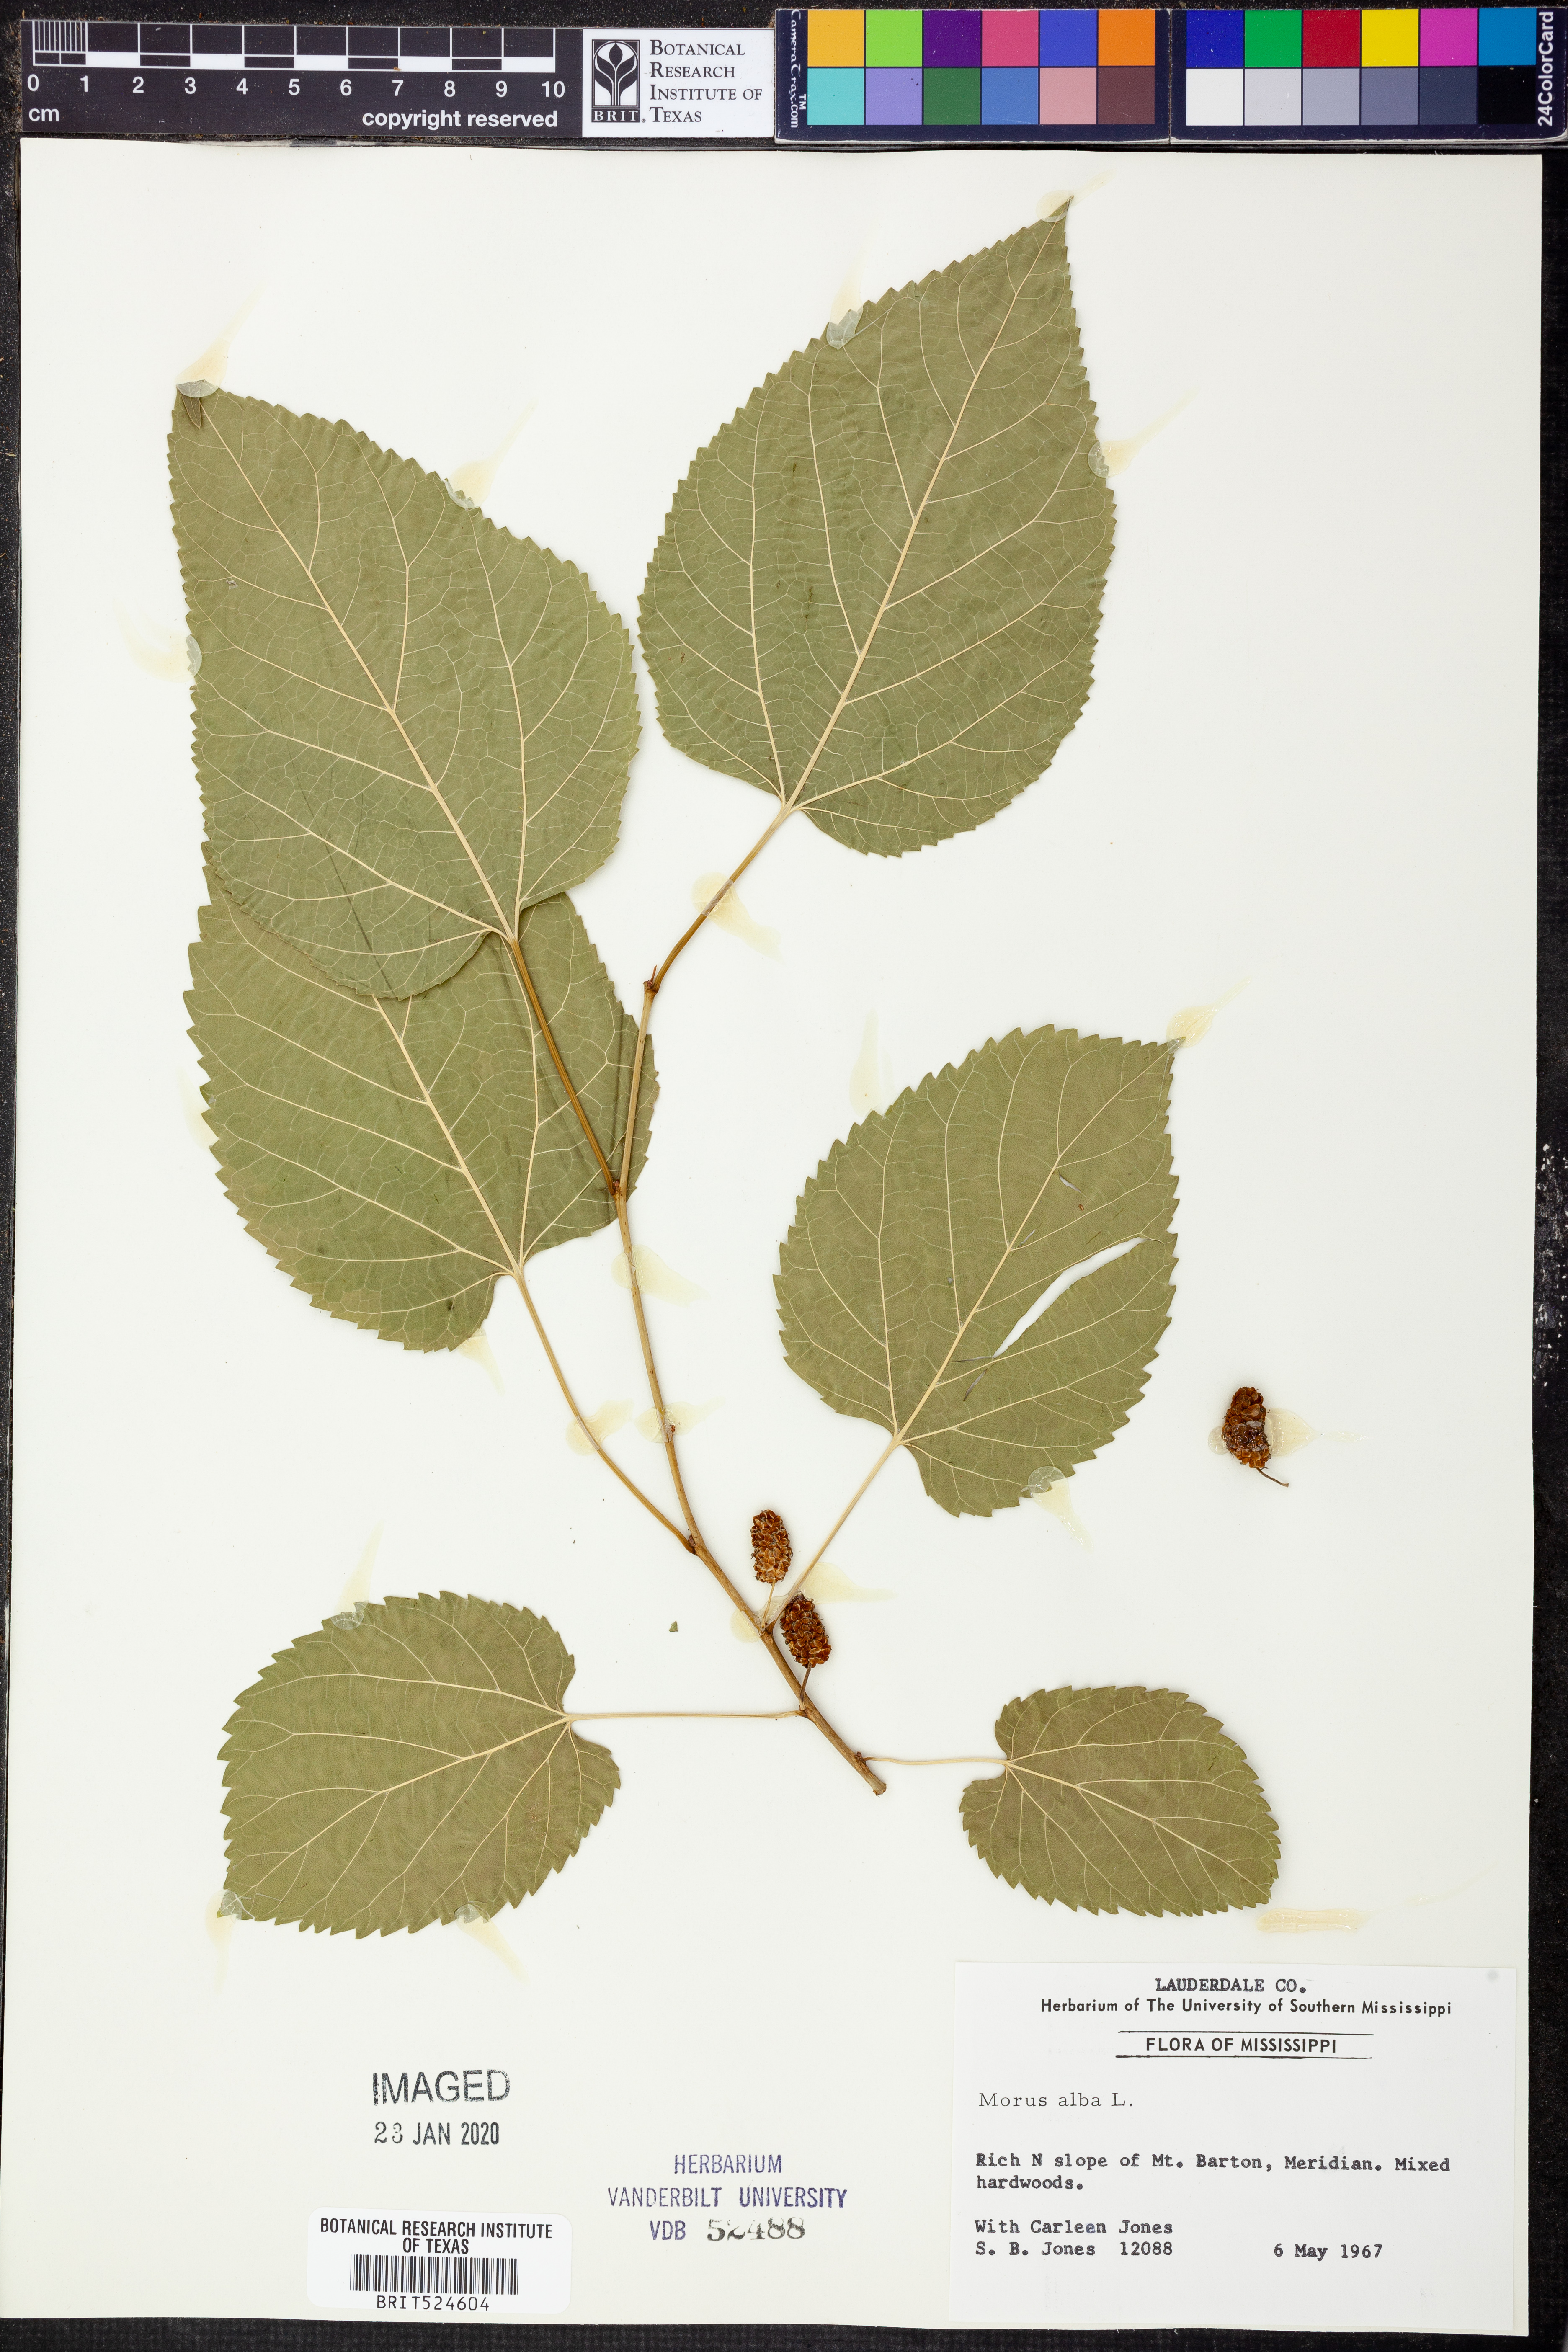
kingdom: Plantae
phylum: Tracheophyta
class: Magnoliopsida
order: Rosales
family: Moraceae
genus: Morus
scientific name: Morus alba
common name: White mulberry
